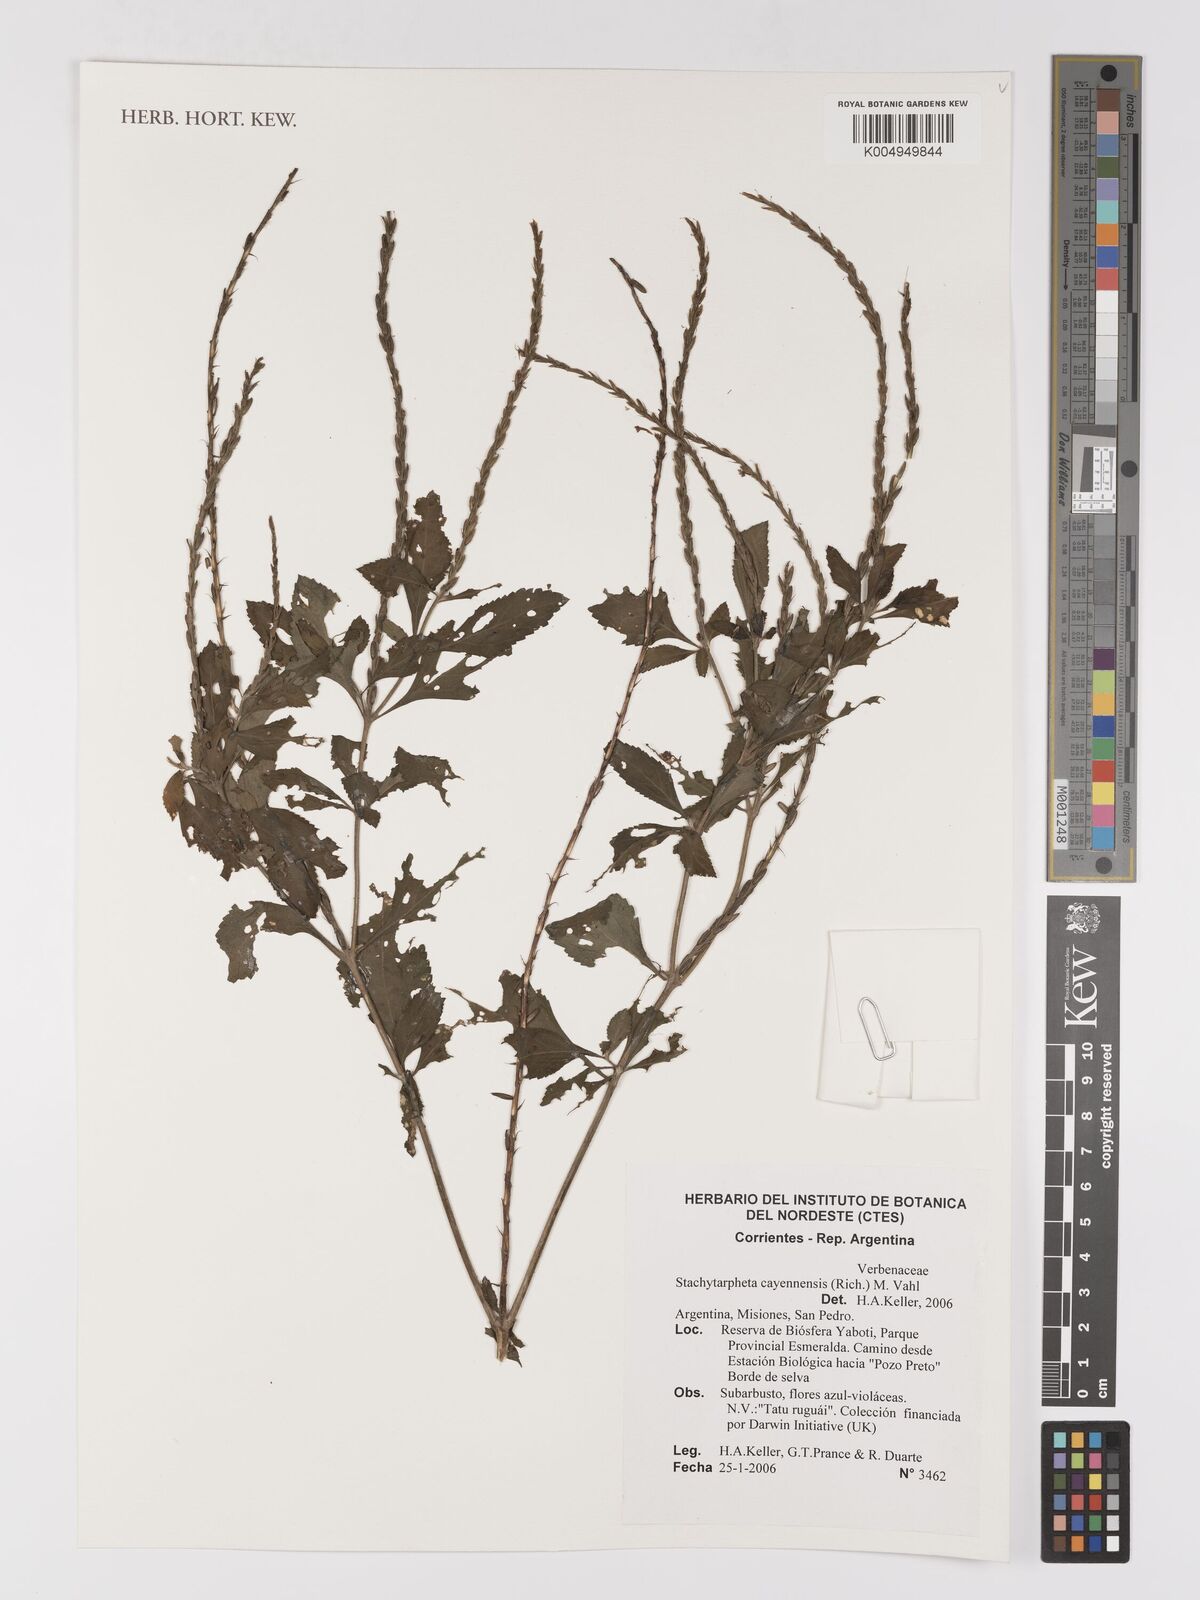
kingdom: Plantae
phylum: Tracheophyta
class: Magnoliopsida
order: Lamiales
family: Verbenaceae
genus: Stachytarpheta
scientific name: Stachytarpheta cayennensis
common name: Cayenne porterweed
